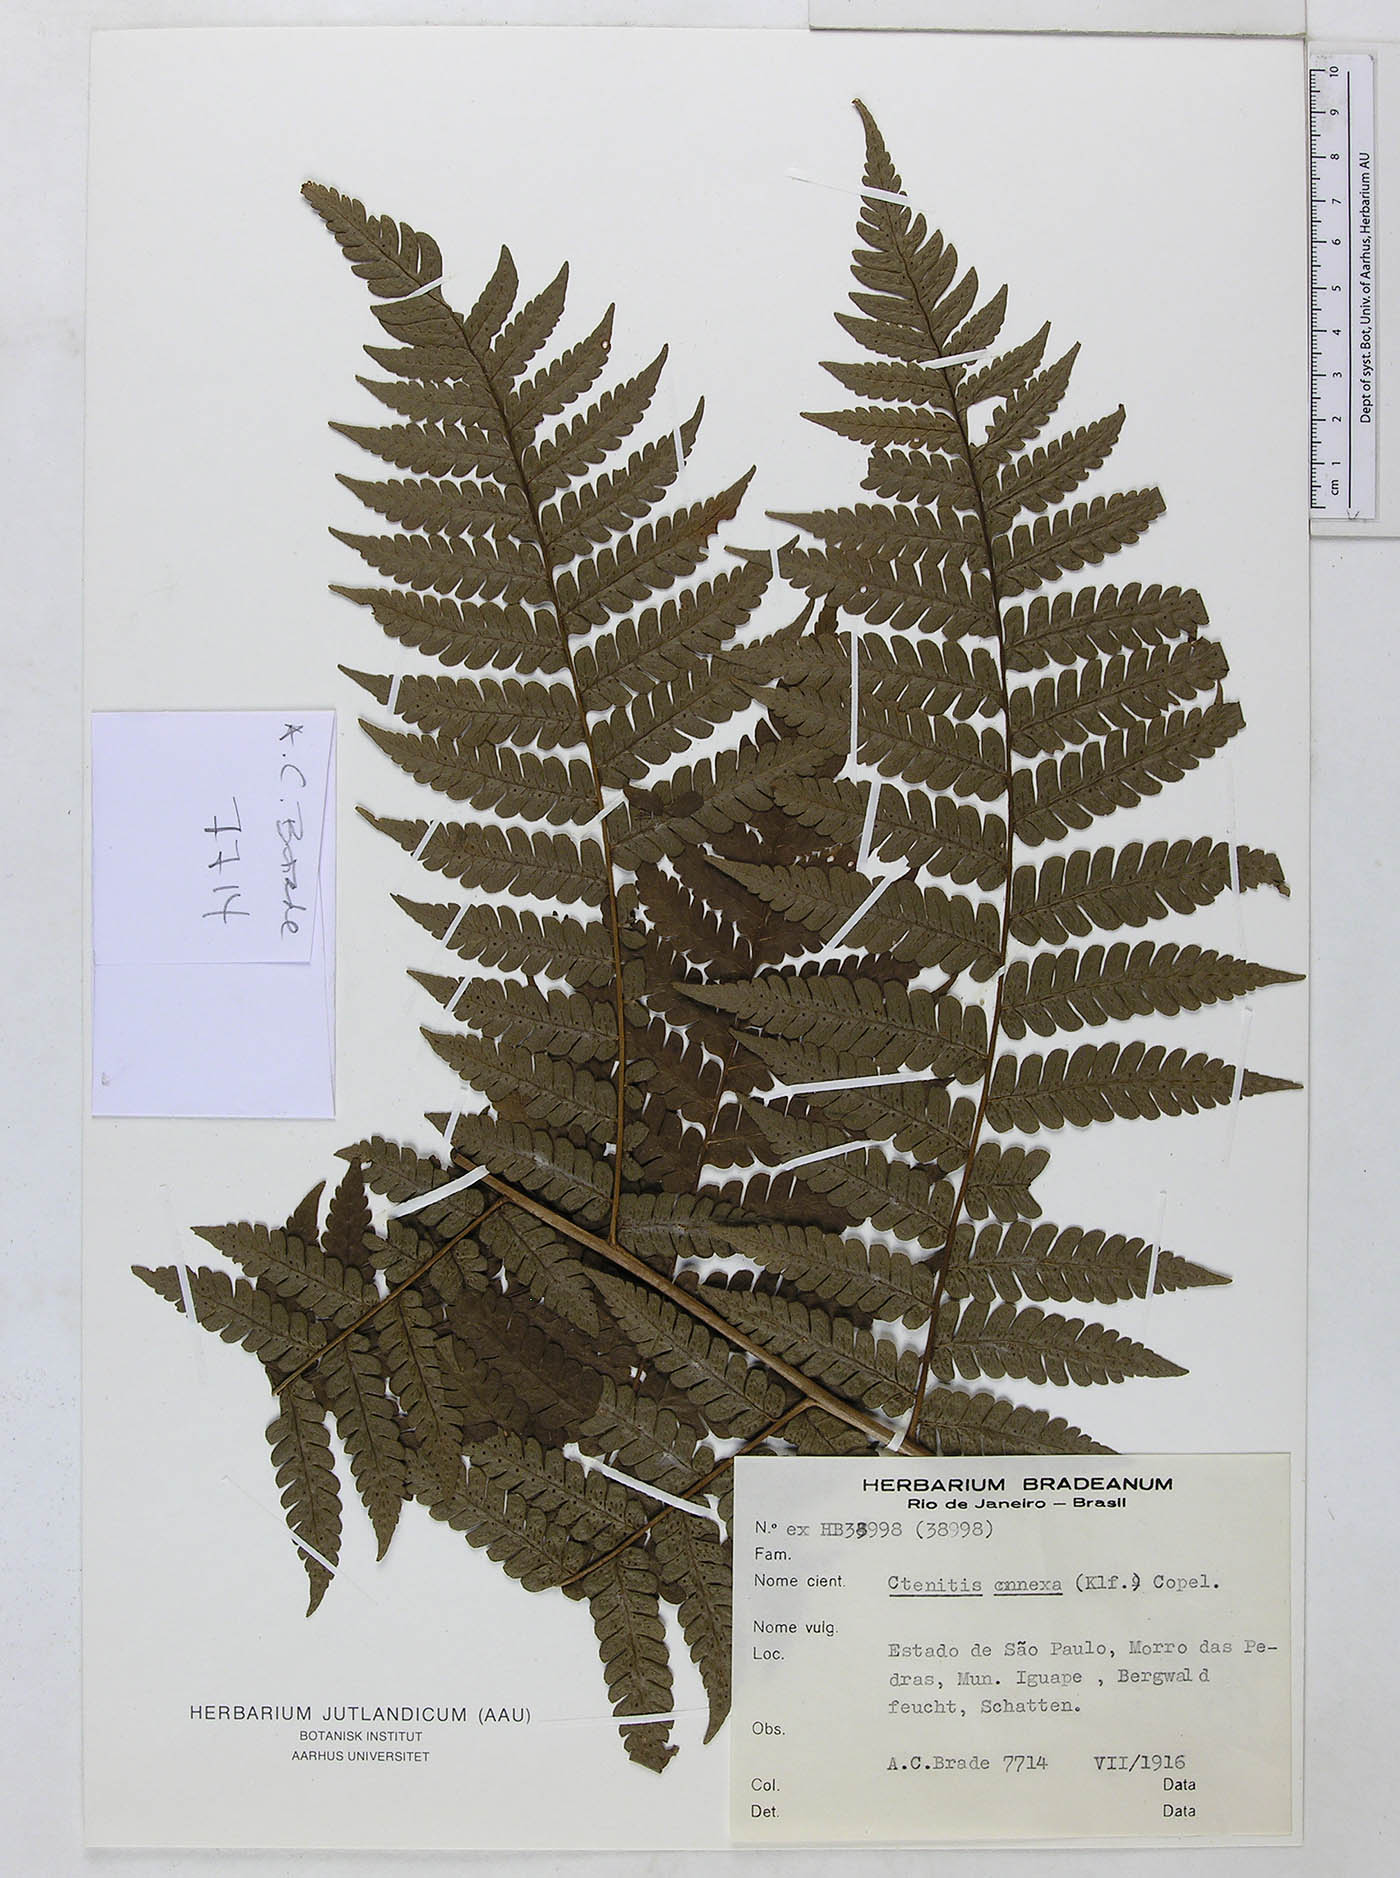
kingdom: Plantae
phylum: Tracheophyta
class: Polypodiopsida
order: Polypodiales
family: Dryopteridaceae
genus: Megalastrum
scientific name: Megalastrum connexum
